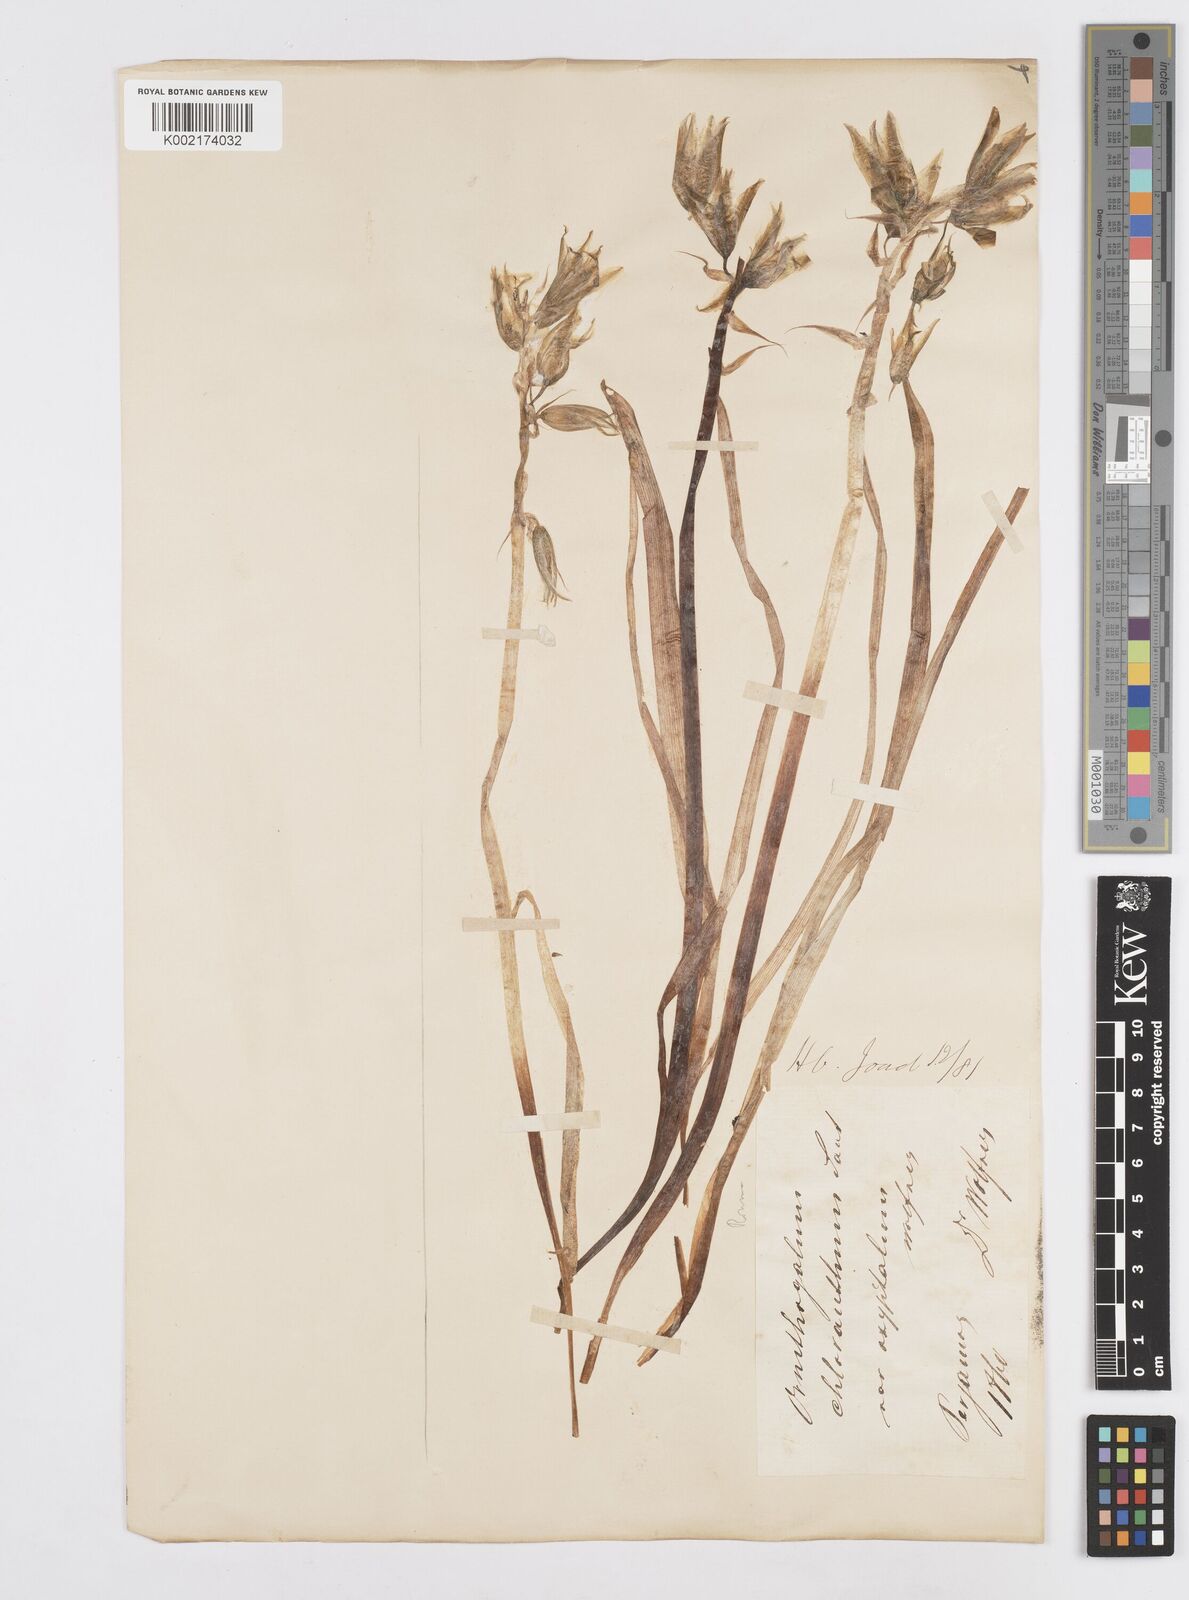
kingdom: Plantae
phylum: Tracheophyta
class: Liliopsida
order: Asparagales
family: Asparagaceae
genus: Ornithogalum
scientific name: Ornithogalum boucheanum
